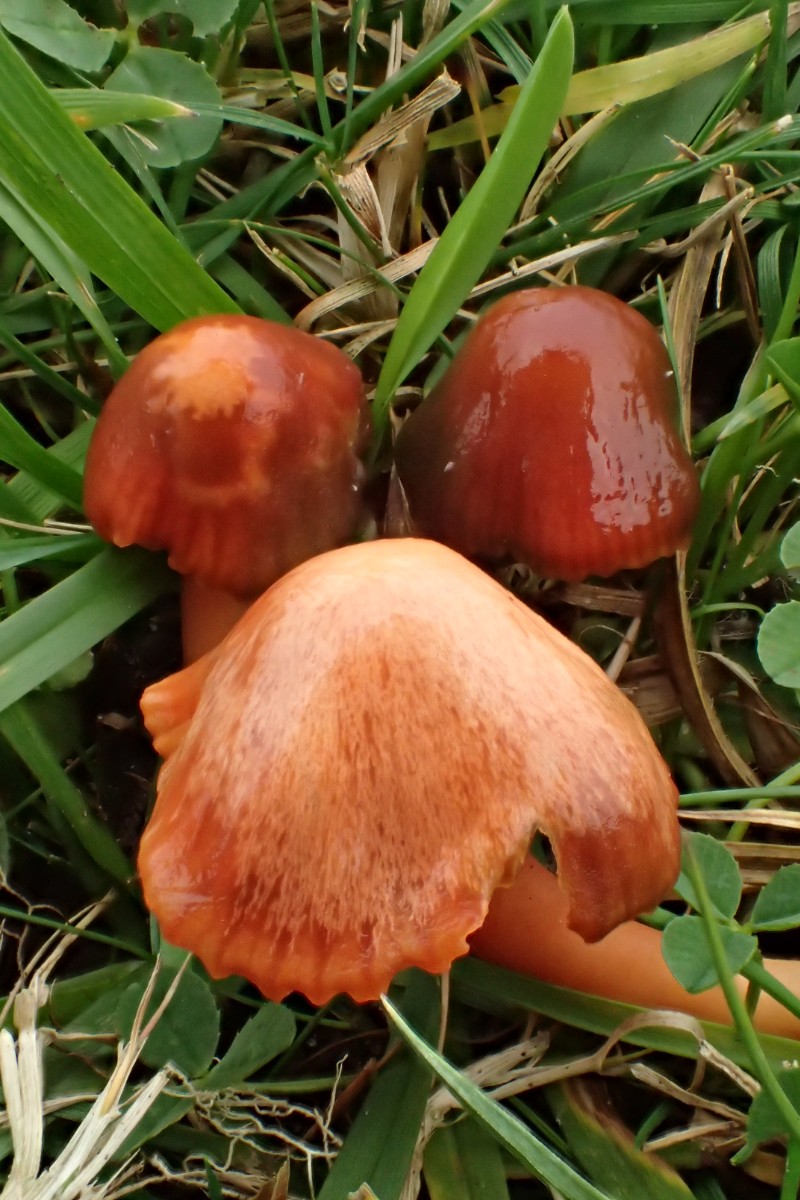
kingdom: Fungi
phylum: Basidiomycota
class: Agaricomycetes
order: Agaricales
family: Hygrophoraceae
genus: Gliophorus
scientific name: Gliophorus europerplexus
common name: Butterscotch waxcap
